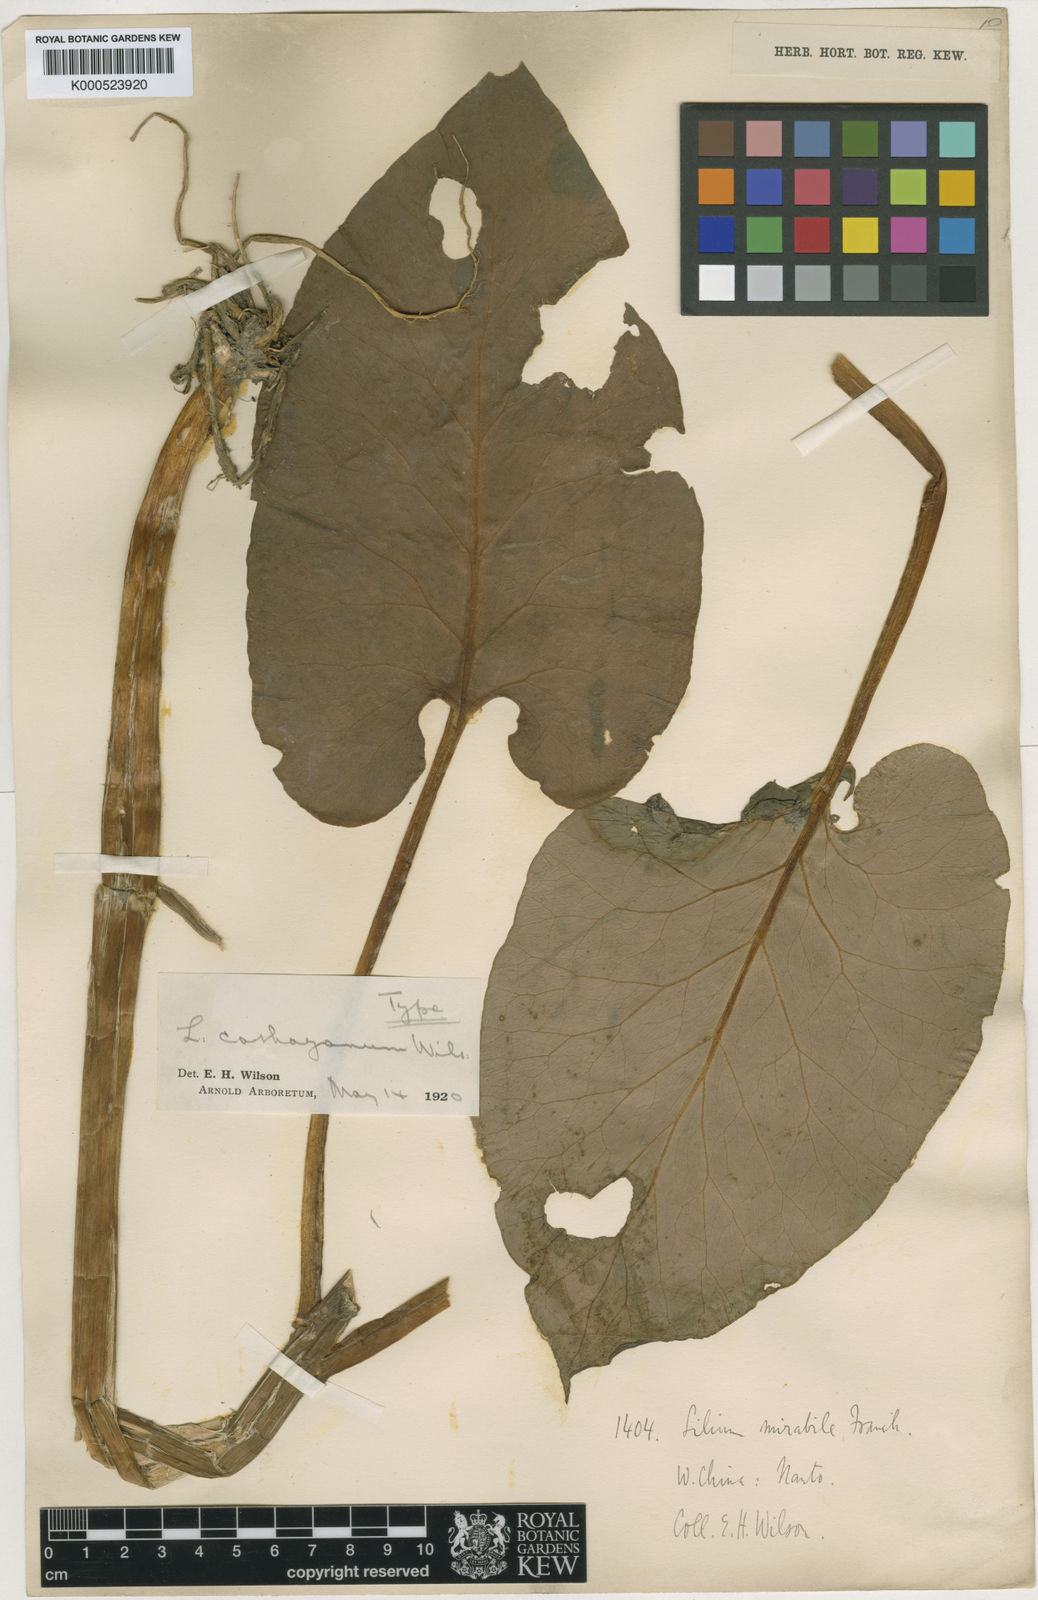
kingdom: Plantae
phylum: Tracheophyta
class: Liliopsida
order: Liliales
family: Liliaceae
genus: Cardiocrinum
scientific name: Cardiocrinum cathayanum
